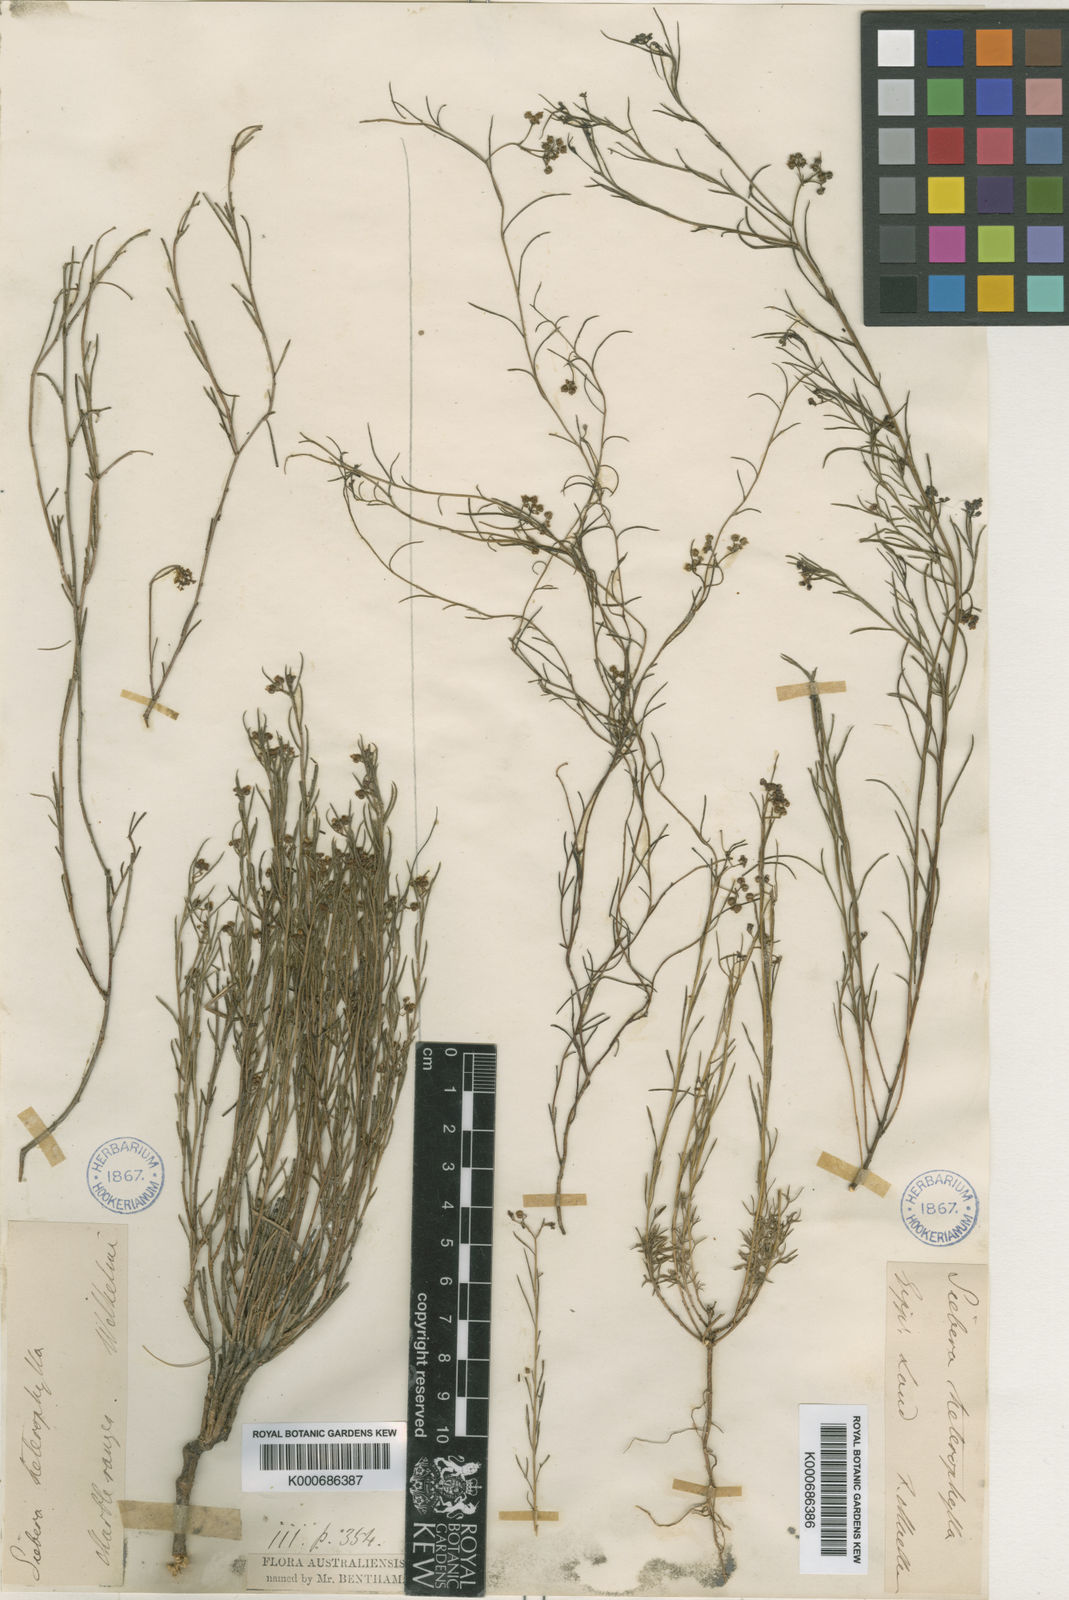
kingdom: Plantae
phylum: Tracheophyta
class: Magnoliopsida
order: Apiales
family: Apiaceae
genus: Platysace
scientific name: Platysace heterophylla
